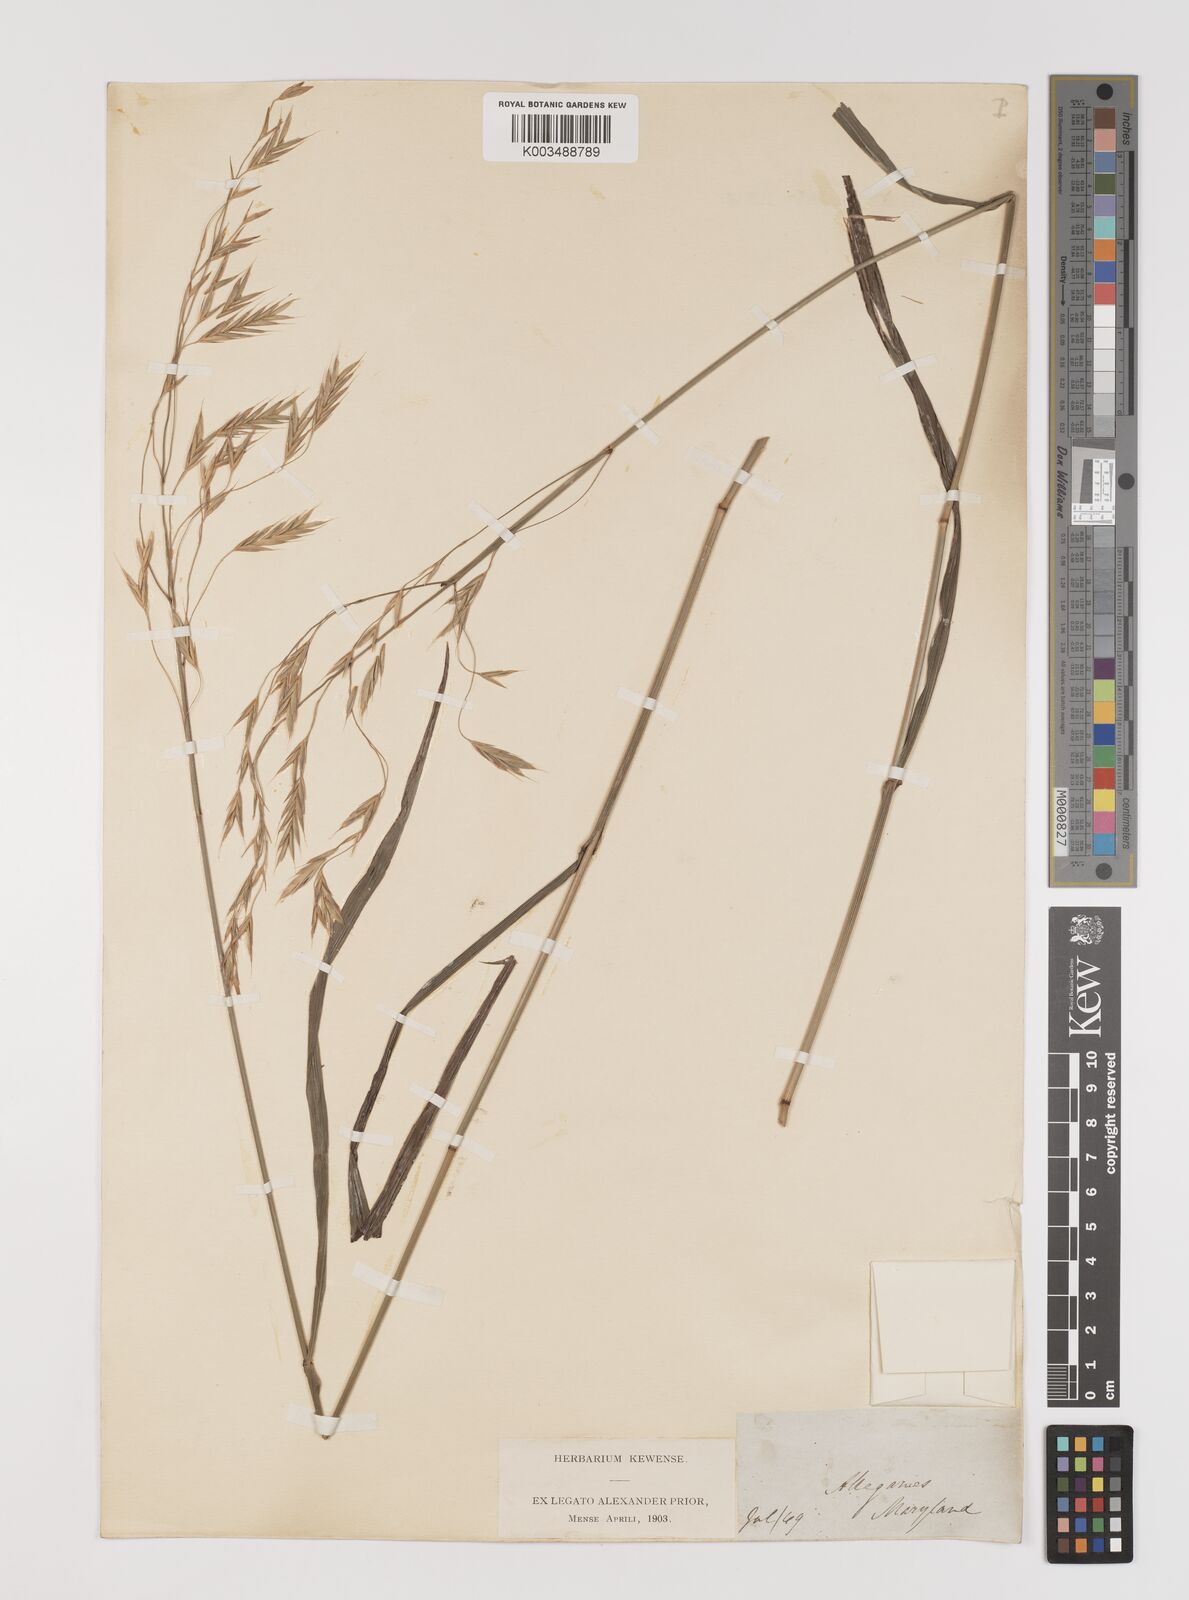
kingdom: Plantae
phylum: Tracheophyta
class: Liliopsida
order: Poales
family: Poaceae
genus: Bromus
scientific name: Bromus
